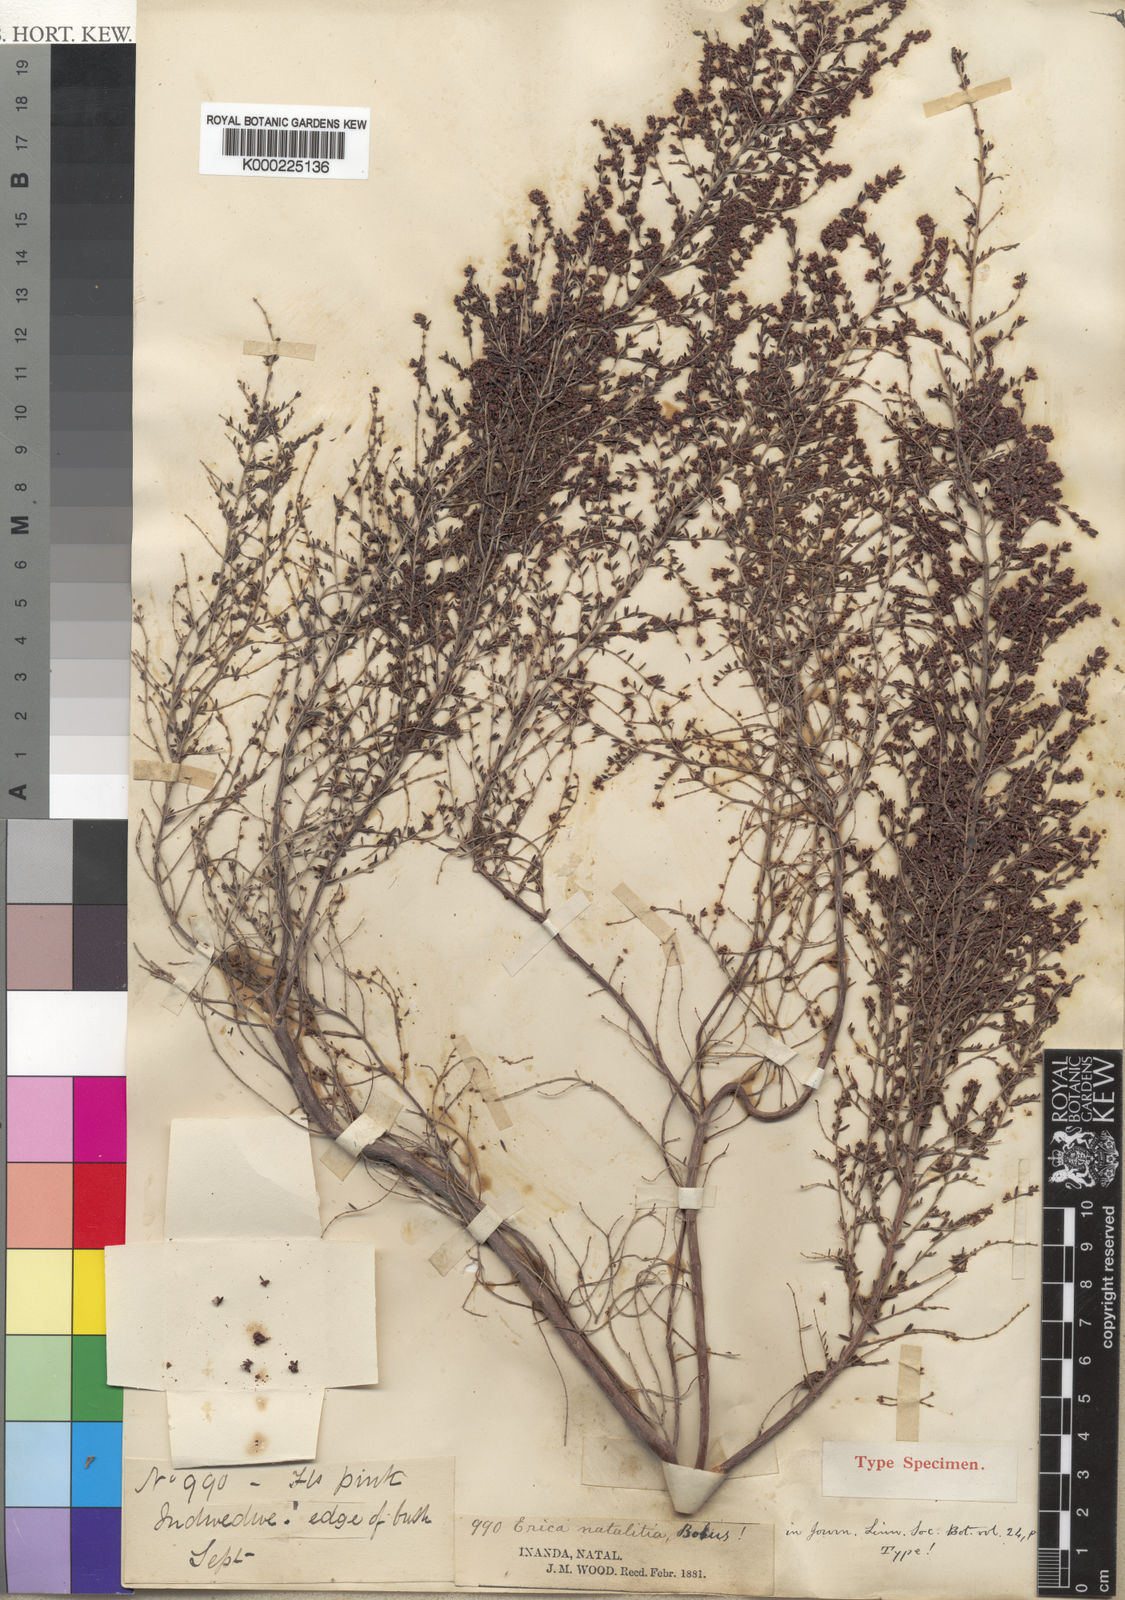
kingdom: Plantae
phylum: Tracheophyta
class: Magnoliopsida
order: Ericales
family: Ericaceae
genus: Erica
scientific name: Erica natalitia
